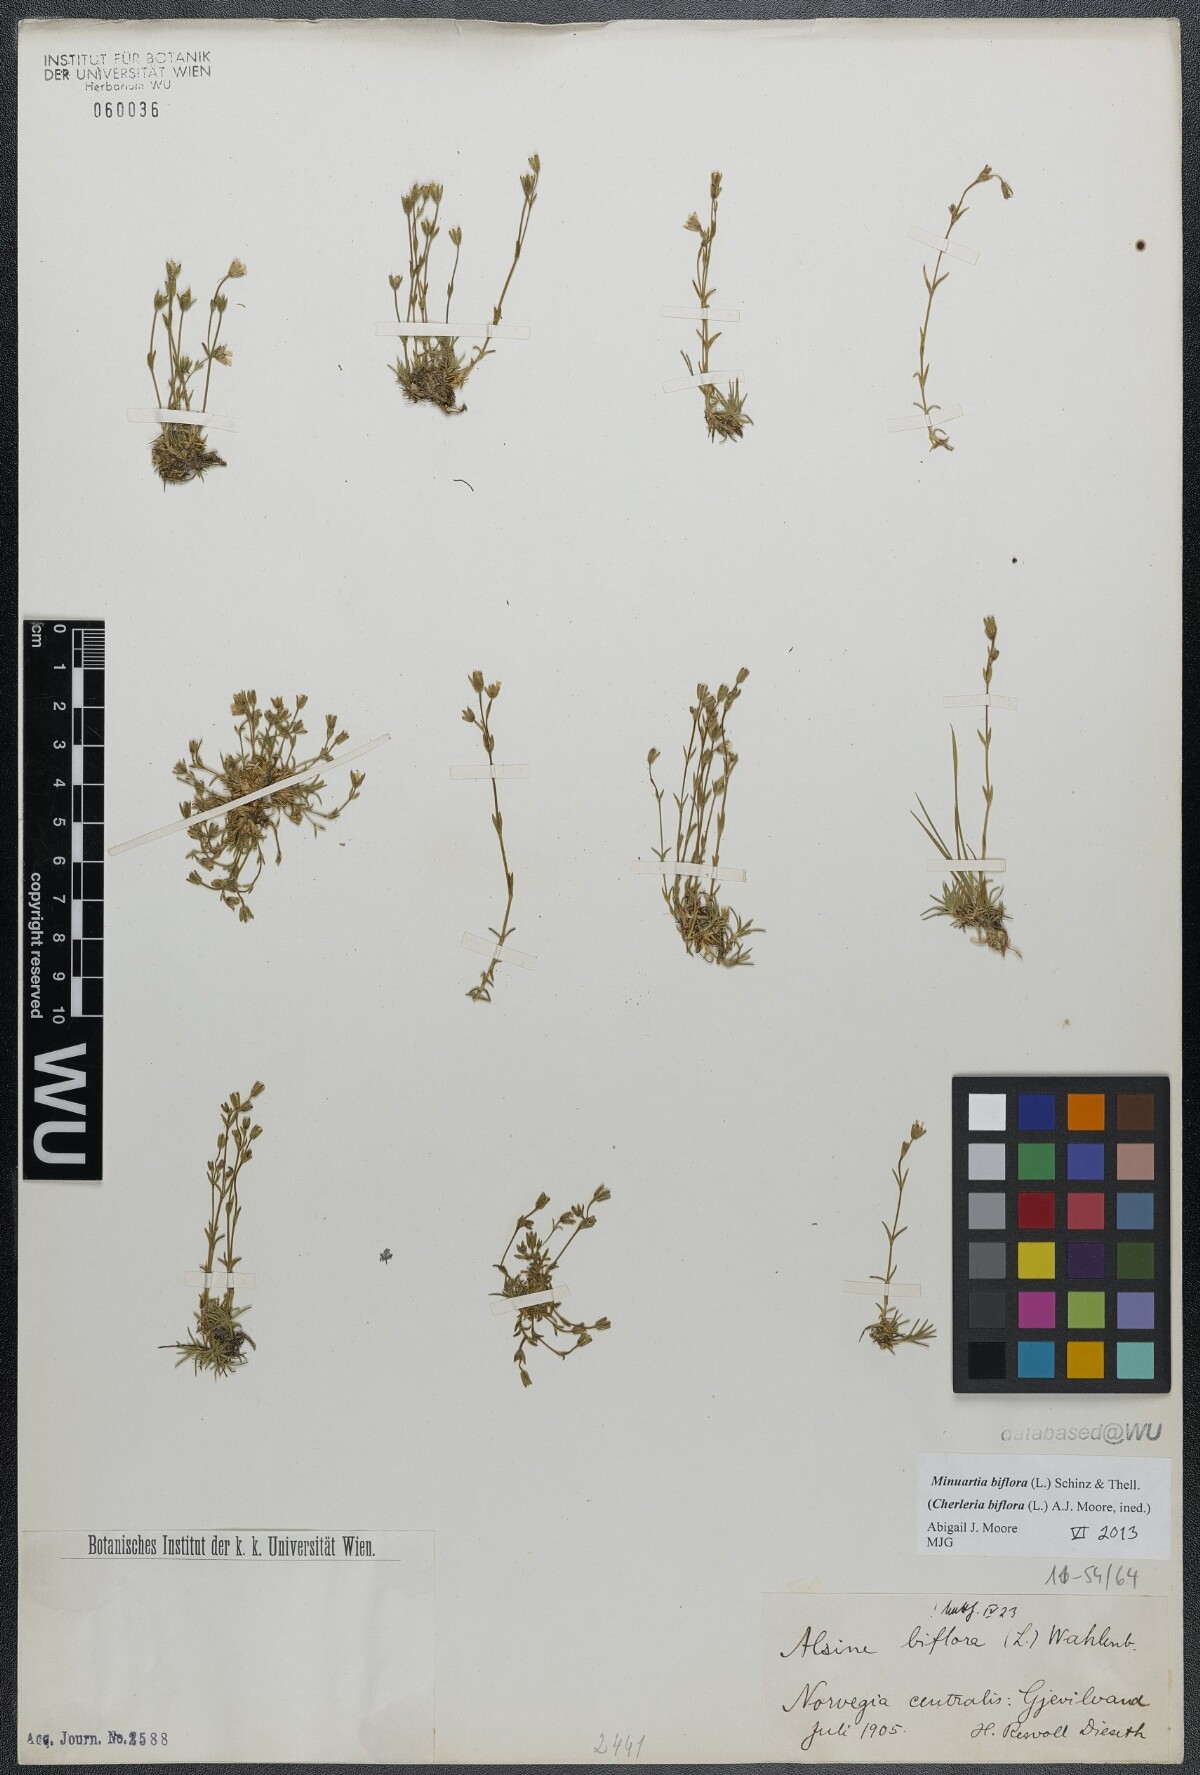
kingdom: Plantae
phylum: Tracheophyta
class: Magnoliopsida
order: Caryophyllales
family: Caryophyllaceae
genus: Cherleria
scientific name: Cherleria biflora
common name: Mountain sandwort
